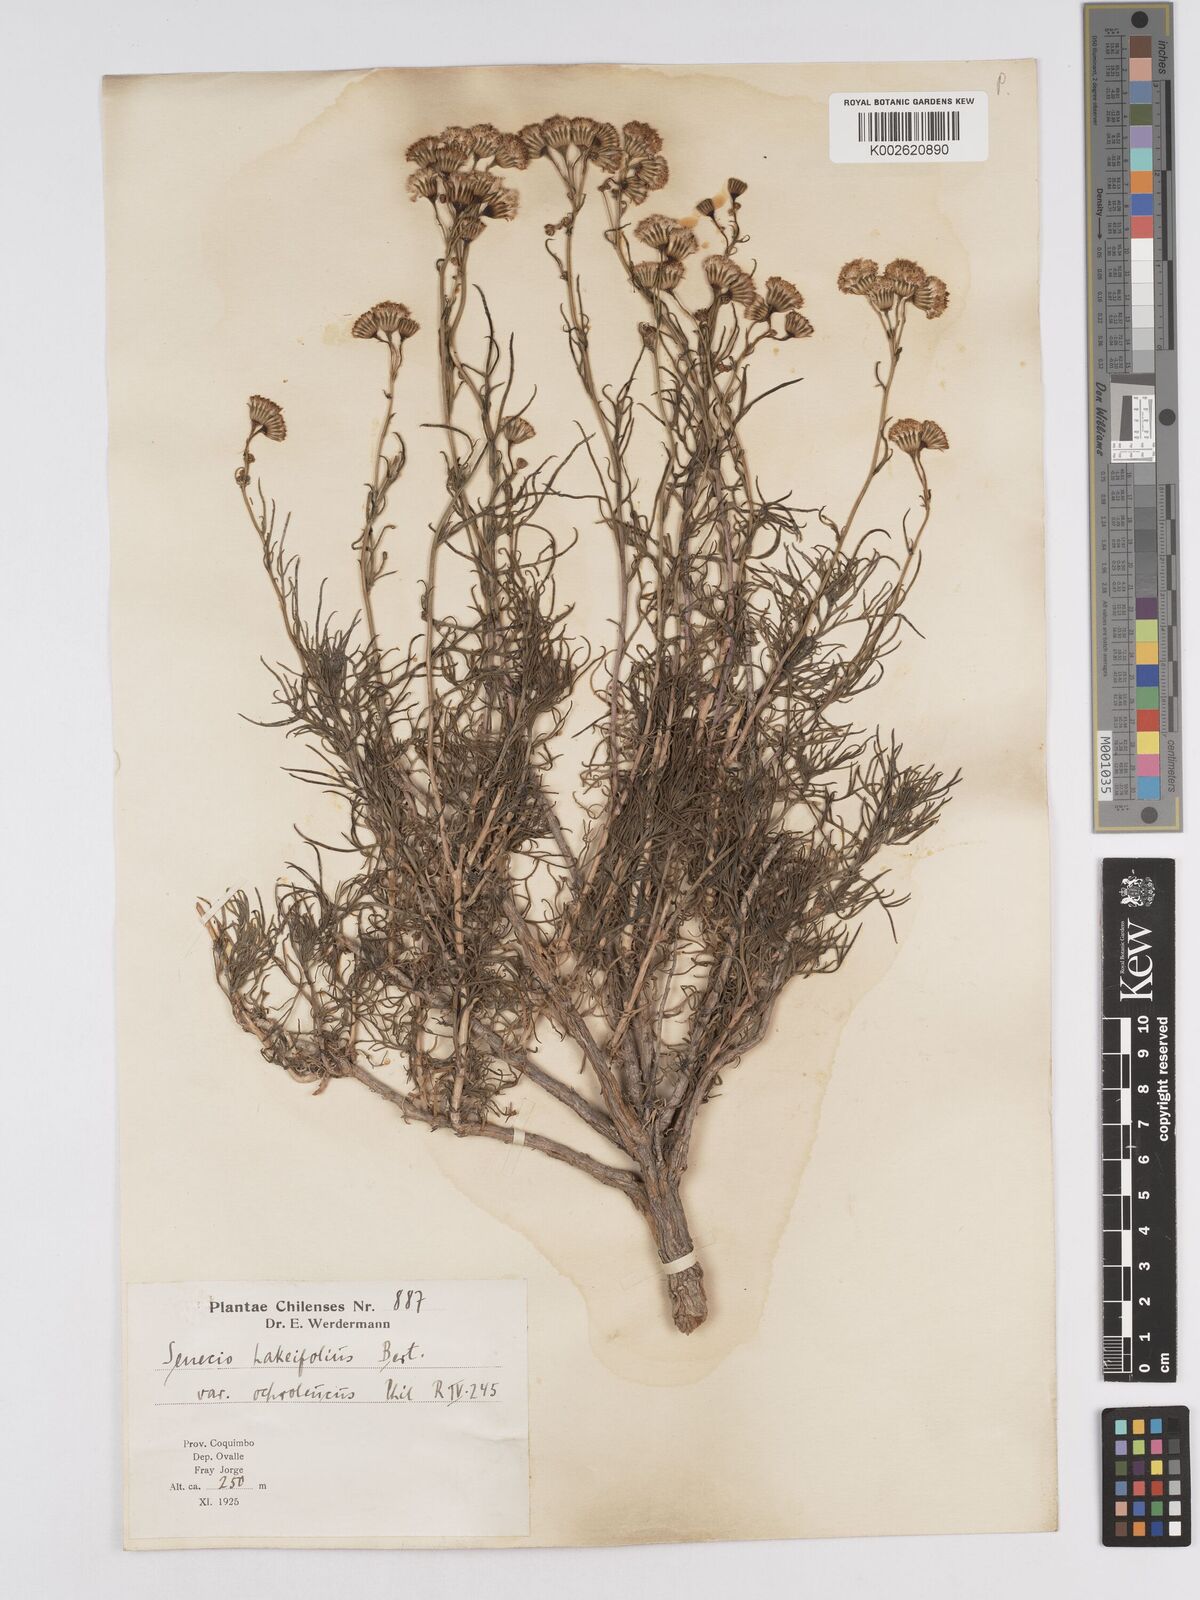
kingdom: Plantae
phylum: Tracheophyta
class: Magnoliopsida
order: Asterales
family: Asteraceae
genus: Senecio
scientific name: Senecio hakeifolius
